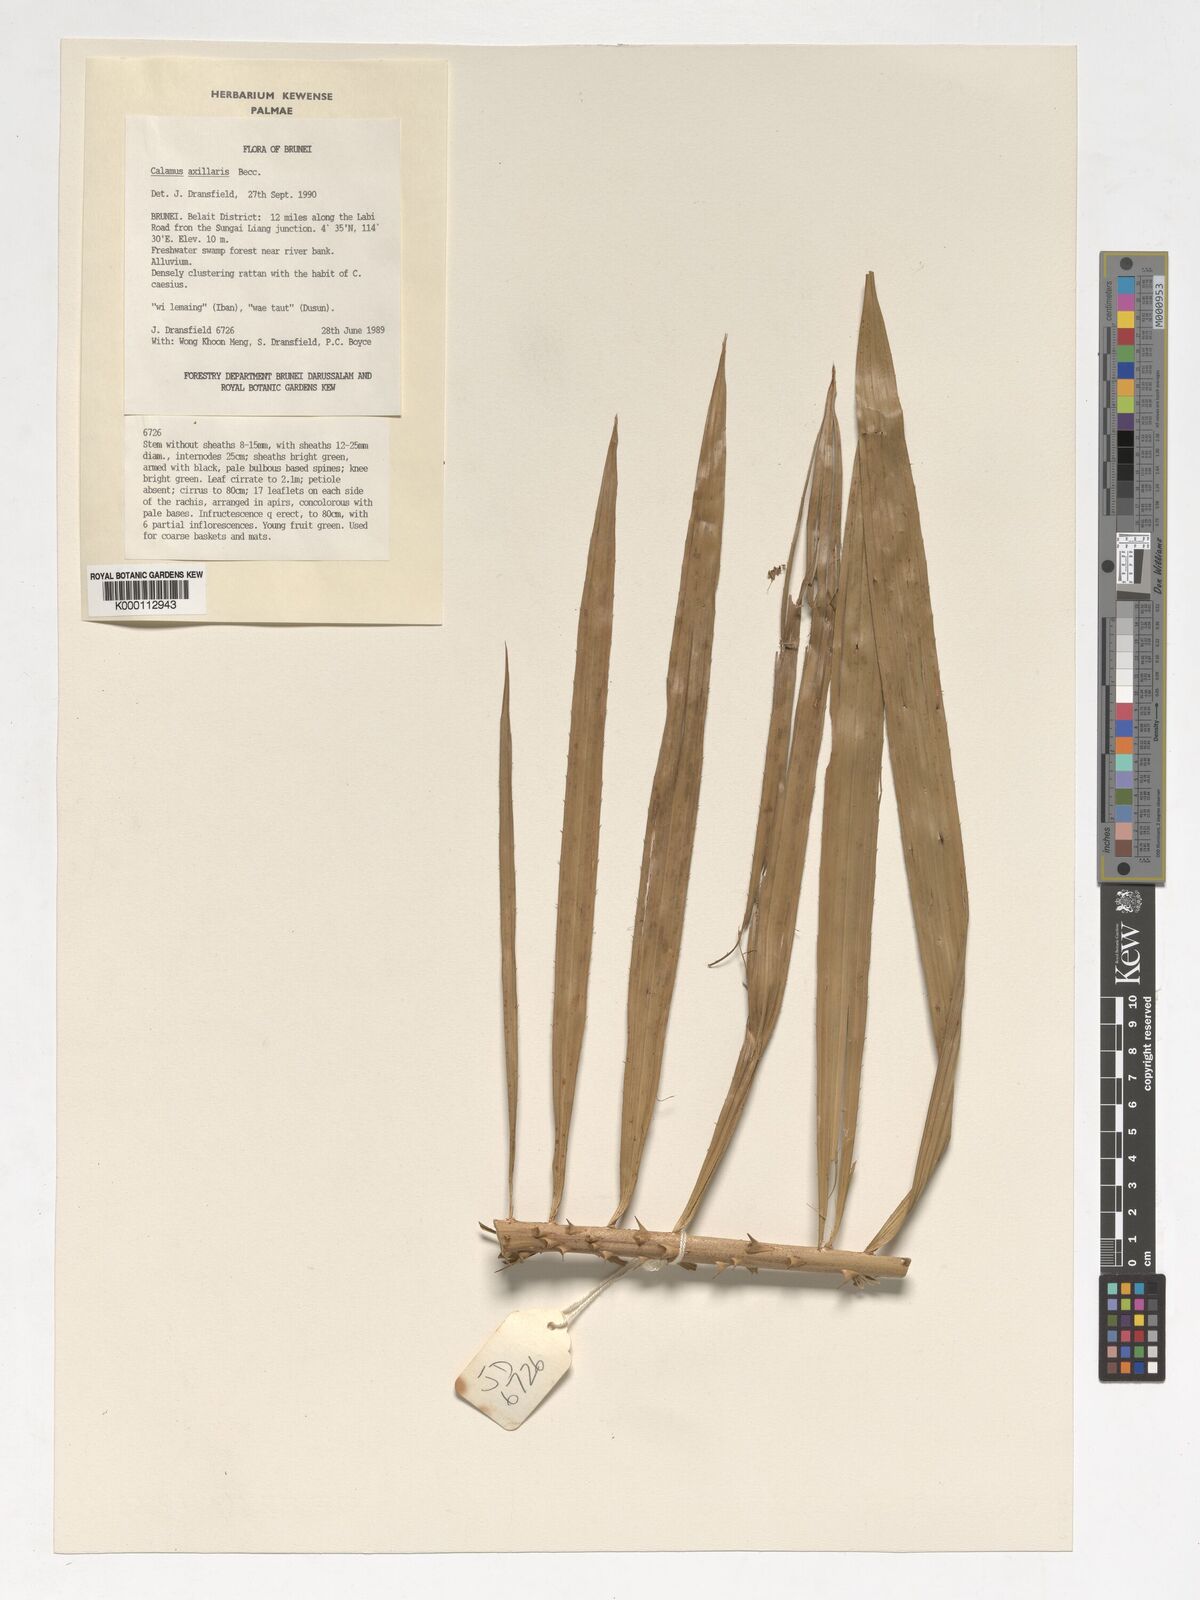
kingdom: Plantae
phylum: Tracheophyta
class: Liliopsida
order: Arecales
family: Arecaceae
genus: Calamus
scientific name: Calamus axillaris
